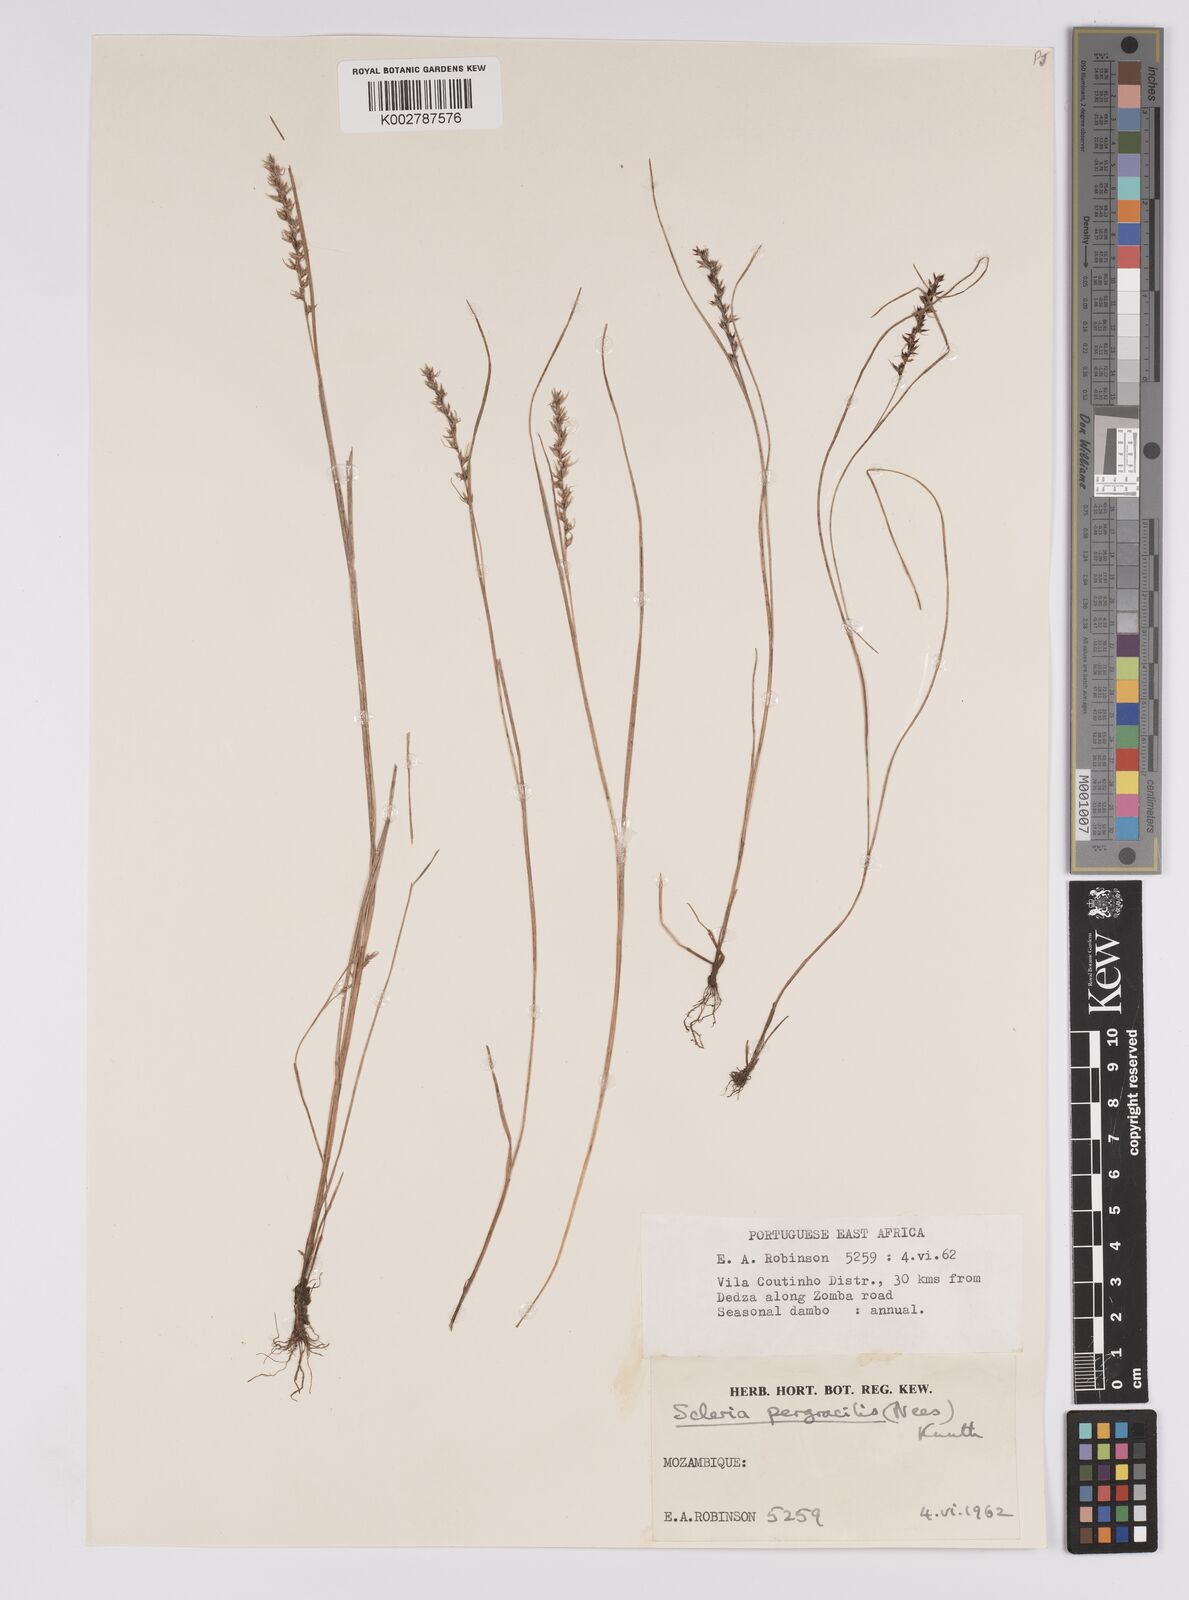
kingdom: Plantae
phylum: Tracheophyta
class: Liliopsida
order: Poales
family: Cyperaceae
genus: Scleria
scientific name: Scleria pergracilis
